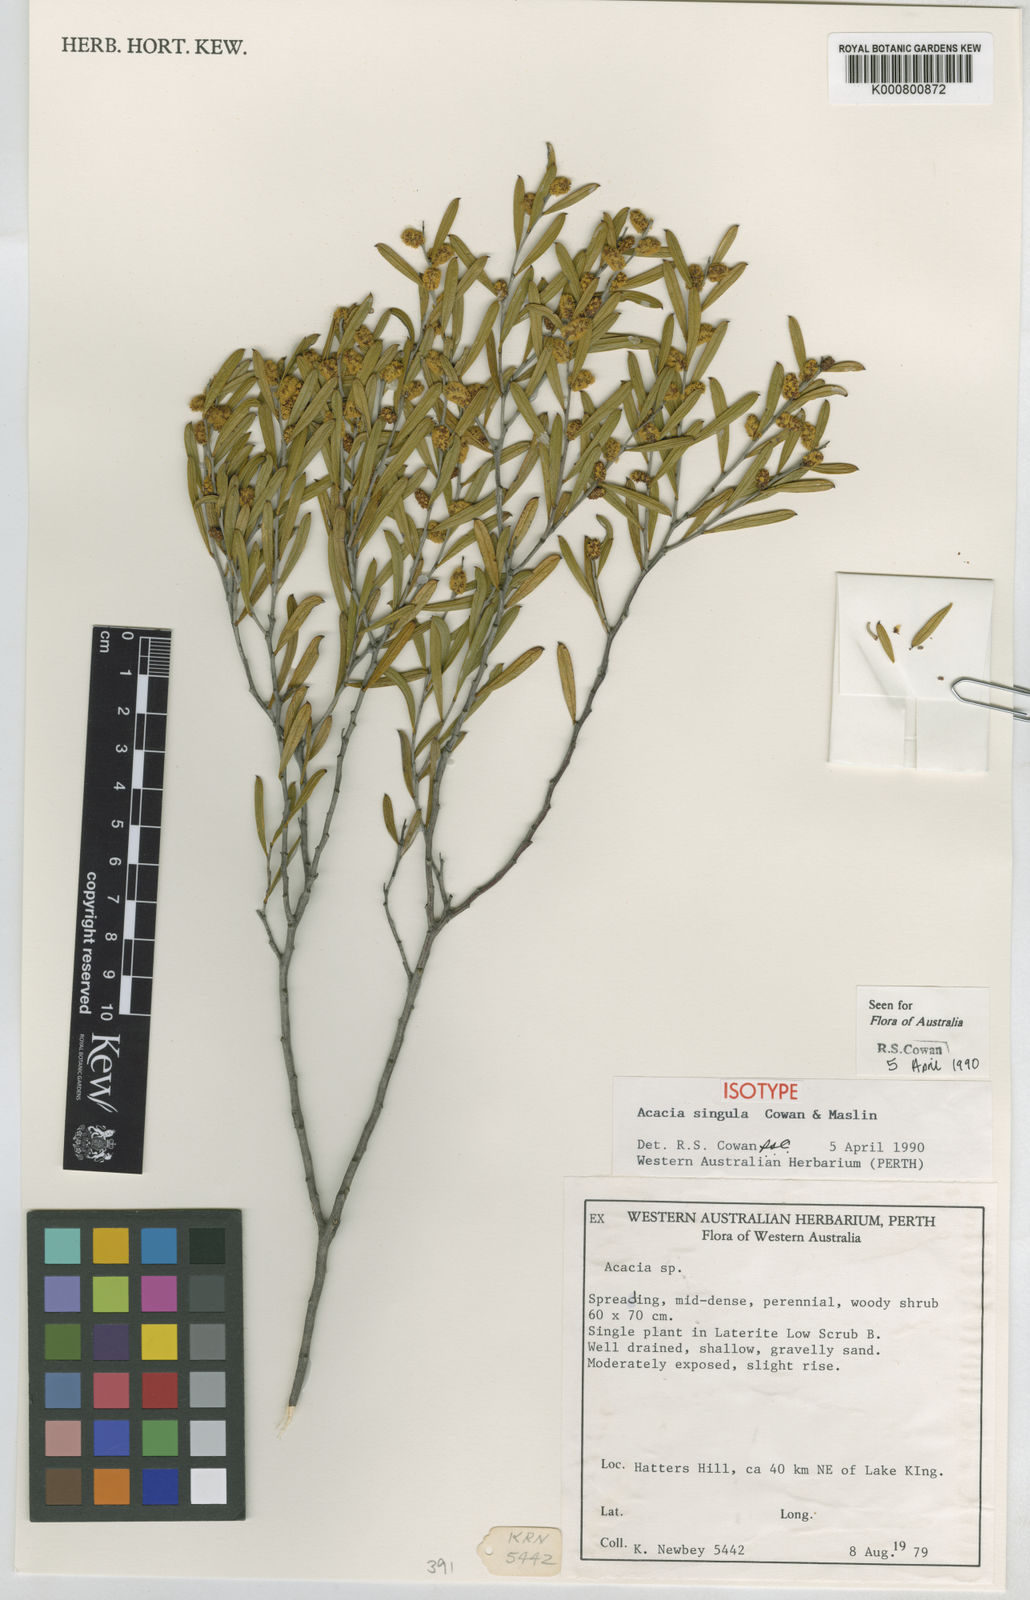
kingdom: Plantae
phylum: Tracheophyta
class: Magnoliopsida
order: Fabales
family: Fabaceae
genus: Acacia
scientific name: Acacia singula
